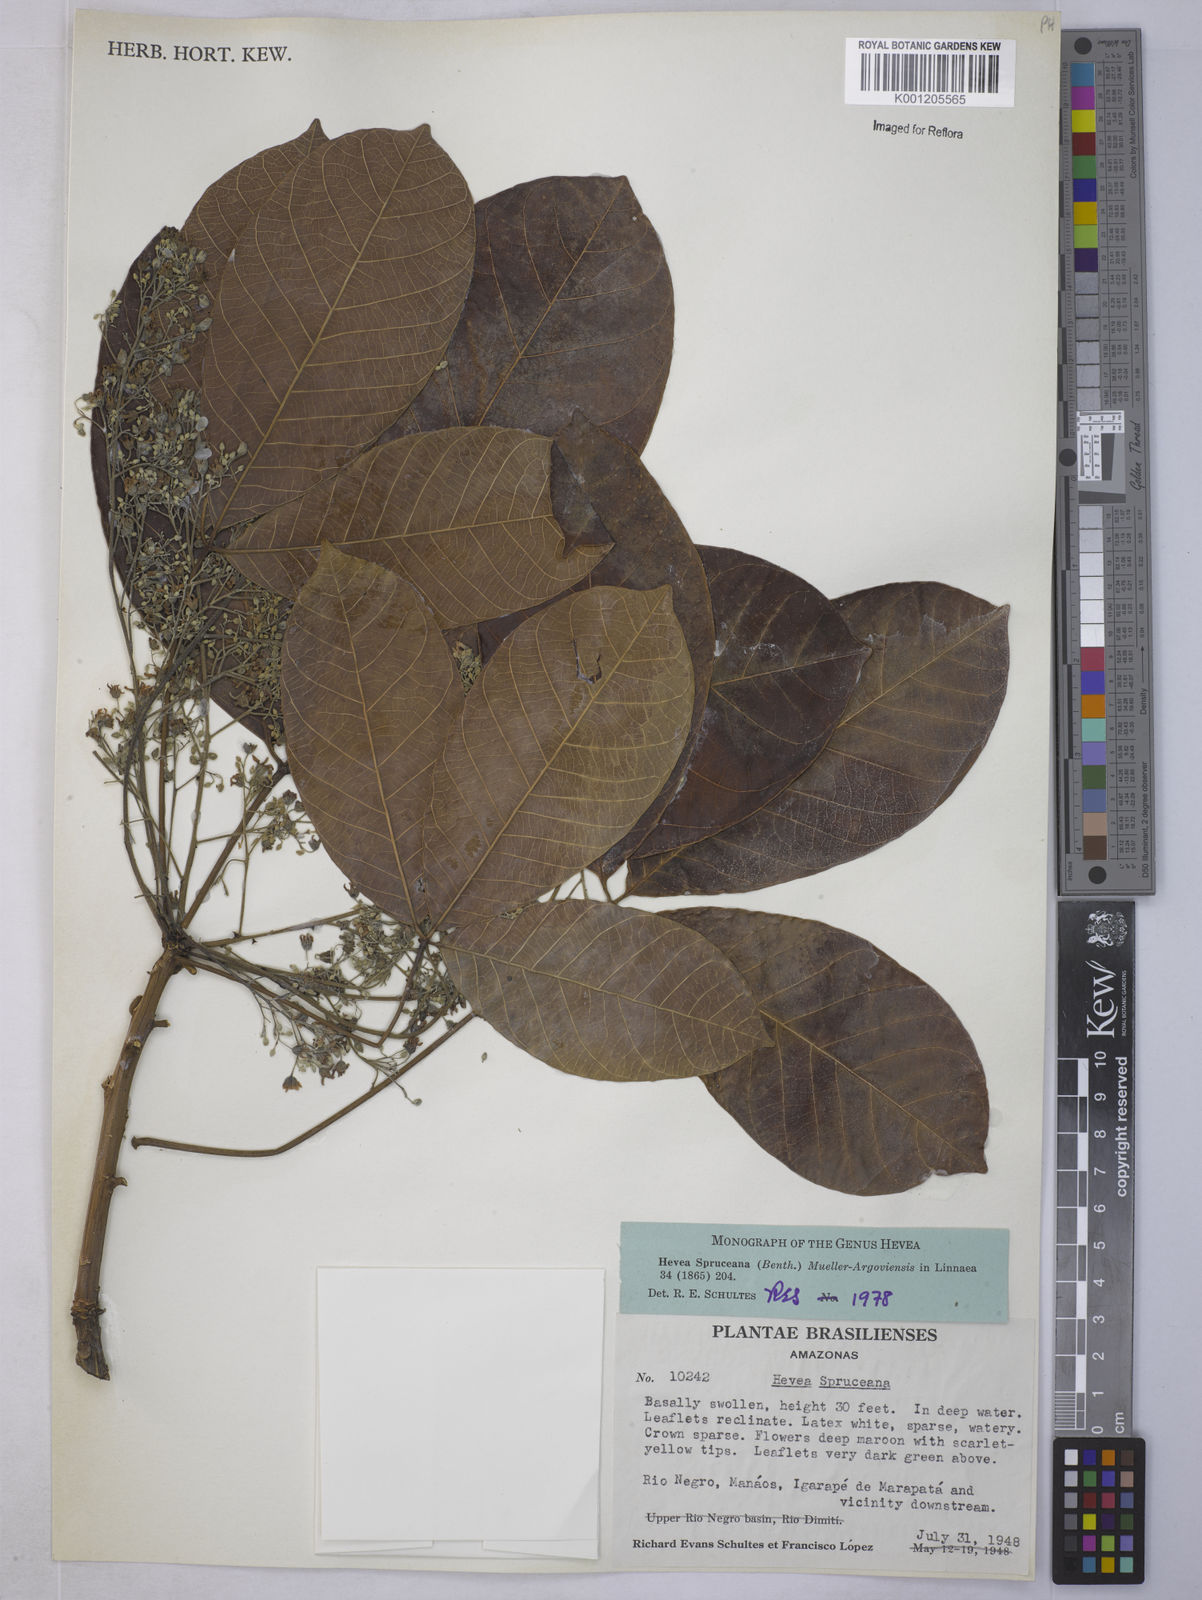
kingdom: Plantae
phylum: Tracheophyta
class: Magnoliopsida
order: Malpighiales
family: Euphorbiaceae
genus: Hevea
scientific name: Hevea
